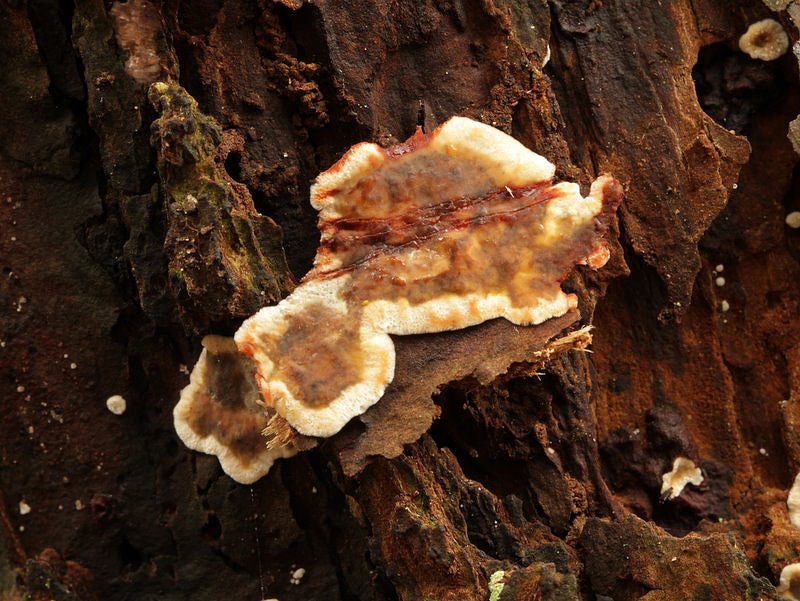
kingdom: Fungi
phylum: Basidiomycota
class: Agaricomycetes
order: Russulales
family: Stereaceae
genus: Stereum
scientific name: Stereum rugosum
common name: rynket lædersvamp
